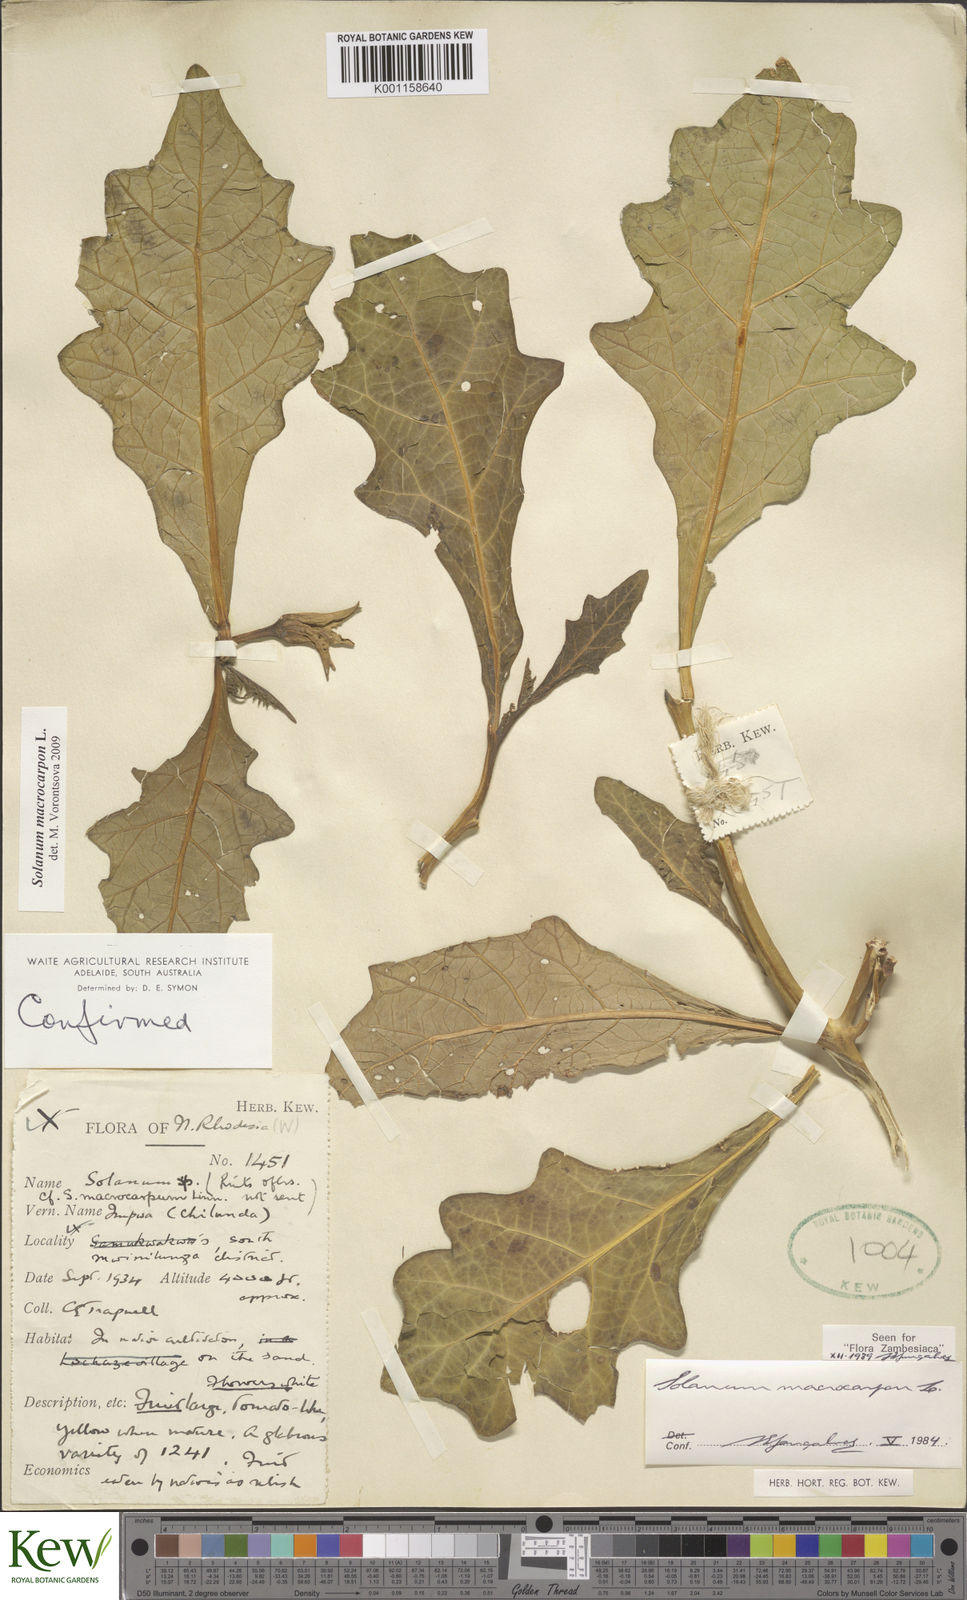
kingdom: Plantae
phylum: Tracheophyta
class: Magnoliopsida
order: Solanales
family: Solanaceae
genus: Solanum
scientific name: Solanum macrocarpon
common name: African eggplant
